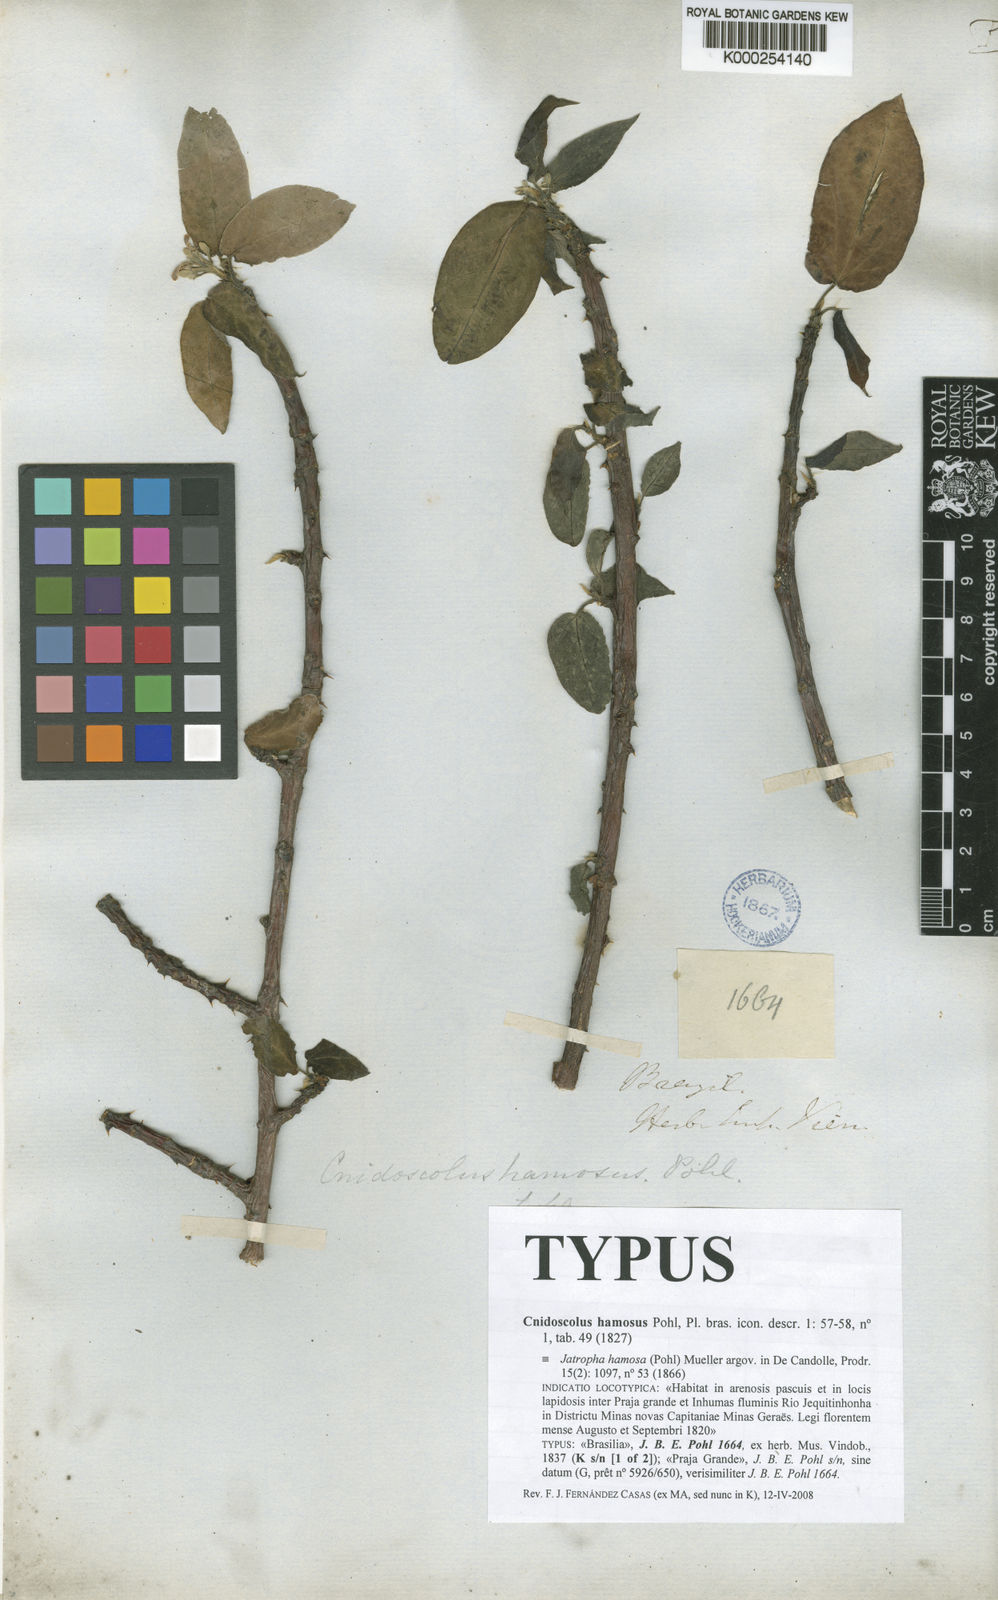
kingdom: Plantae
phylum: Tracheophyta
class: Magnoliopsida
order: Malpighiales
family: Euphorbiaceae
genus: Cnidoscolus
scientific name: Cnidoscolus hamosus
